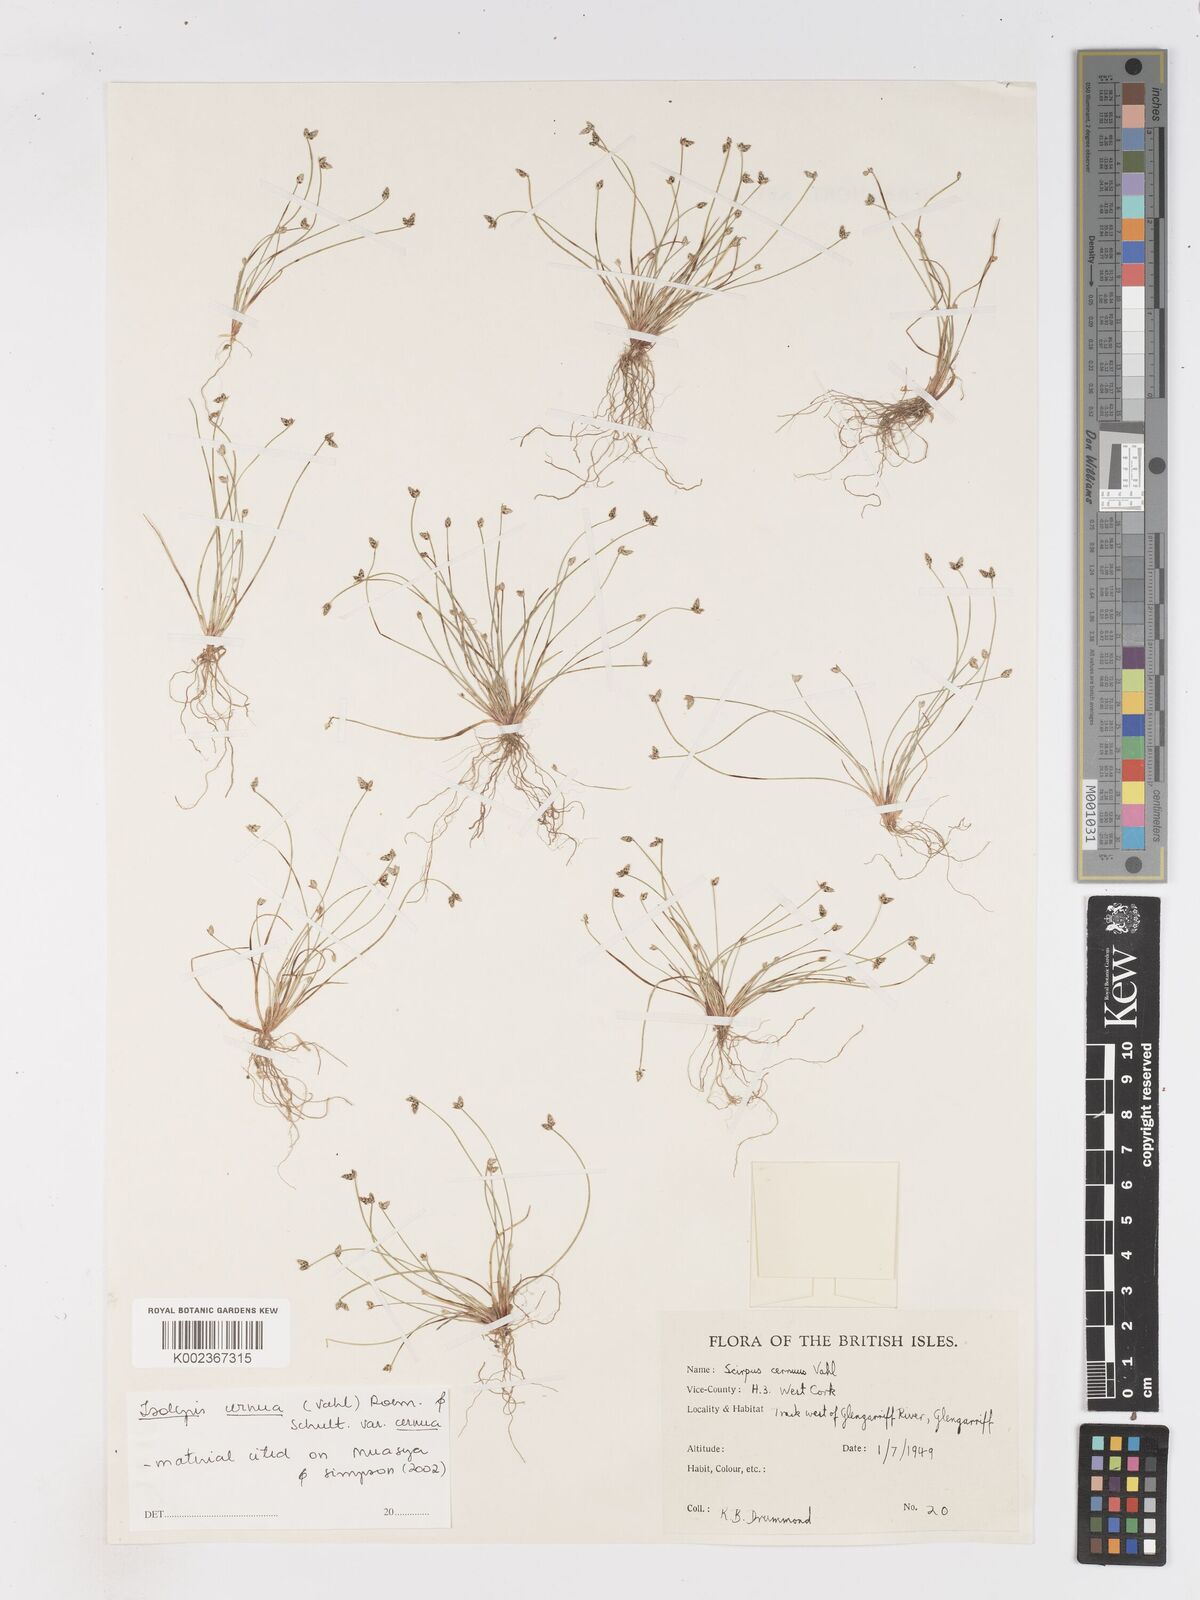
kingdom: Plantae
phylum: Tracheophyta
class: Liliopsida
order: Poales
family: Cyperaceae
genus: Isolepis
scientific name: Isolepis cernua
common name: Slender club-rush
